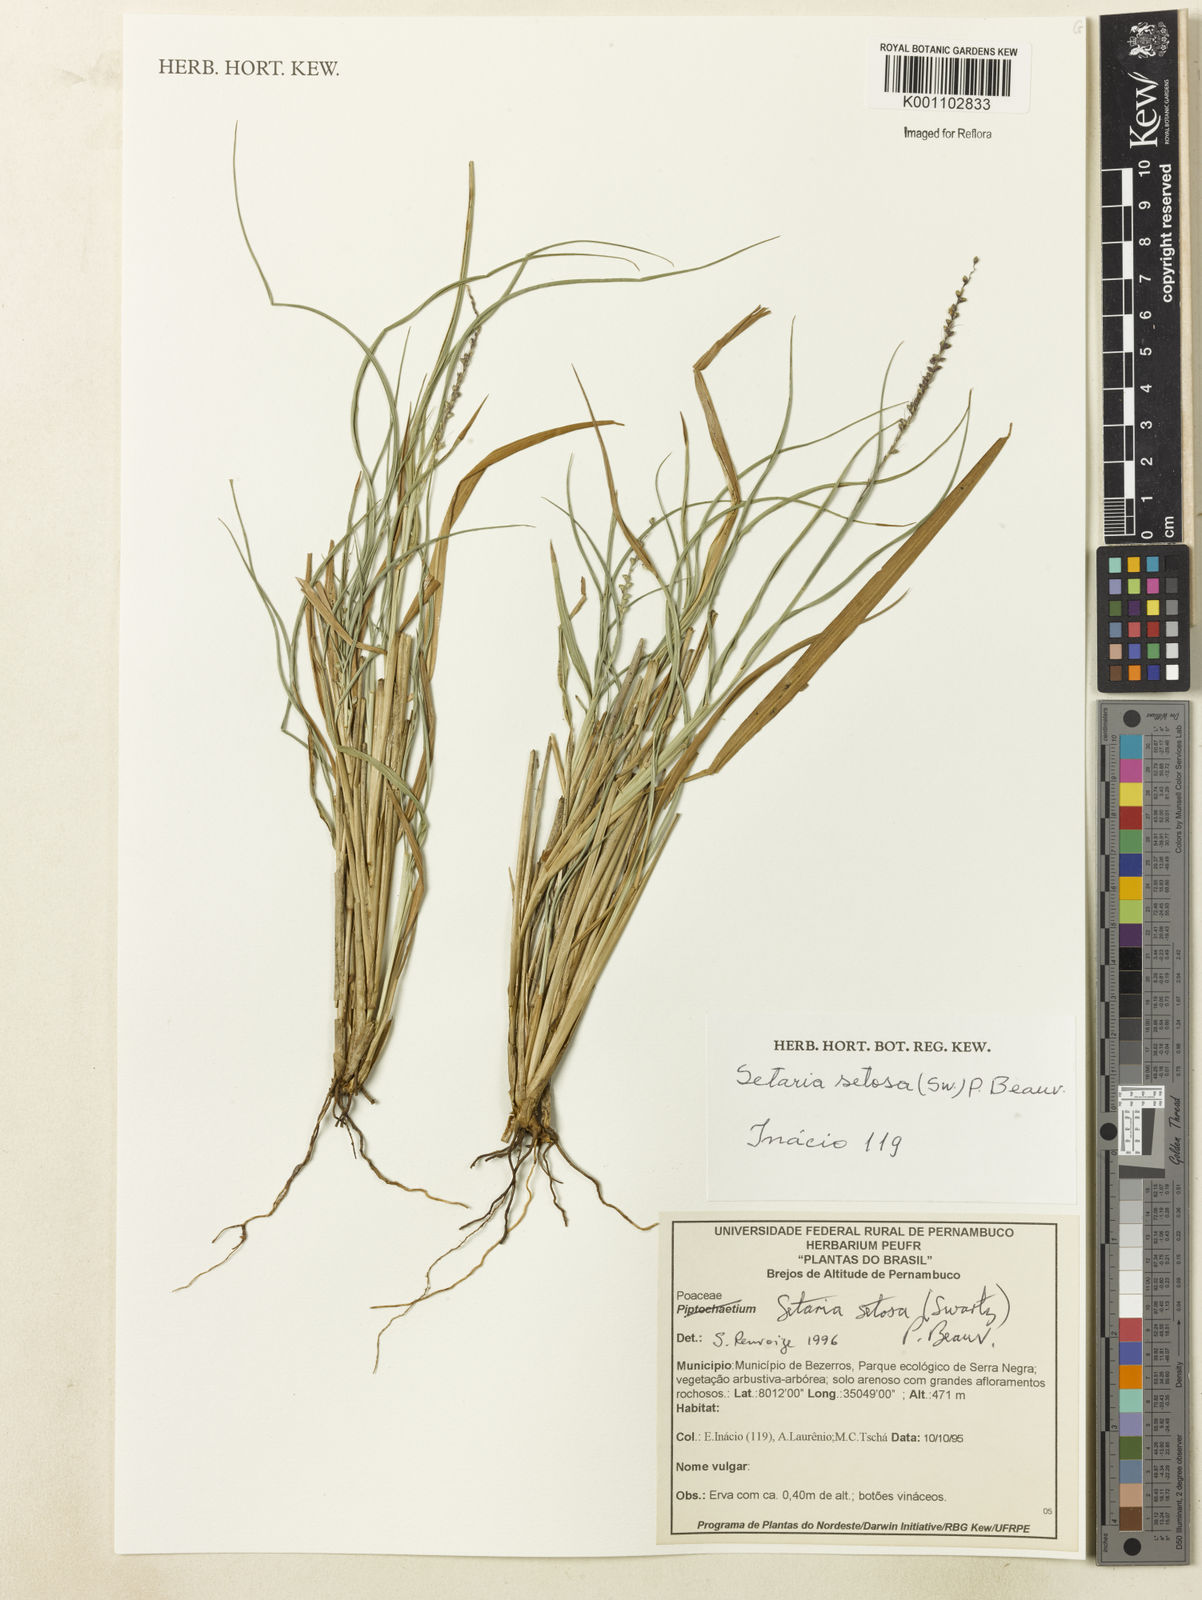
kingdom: Plantae
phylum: Tracheophyta
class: Liliopsida
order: Poales
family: Poaceae
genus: Setaria
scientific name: Setaria setosa
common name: West indies bristle grass
